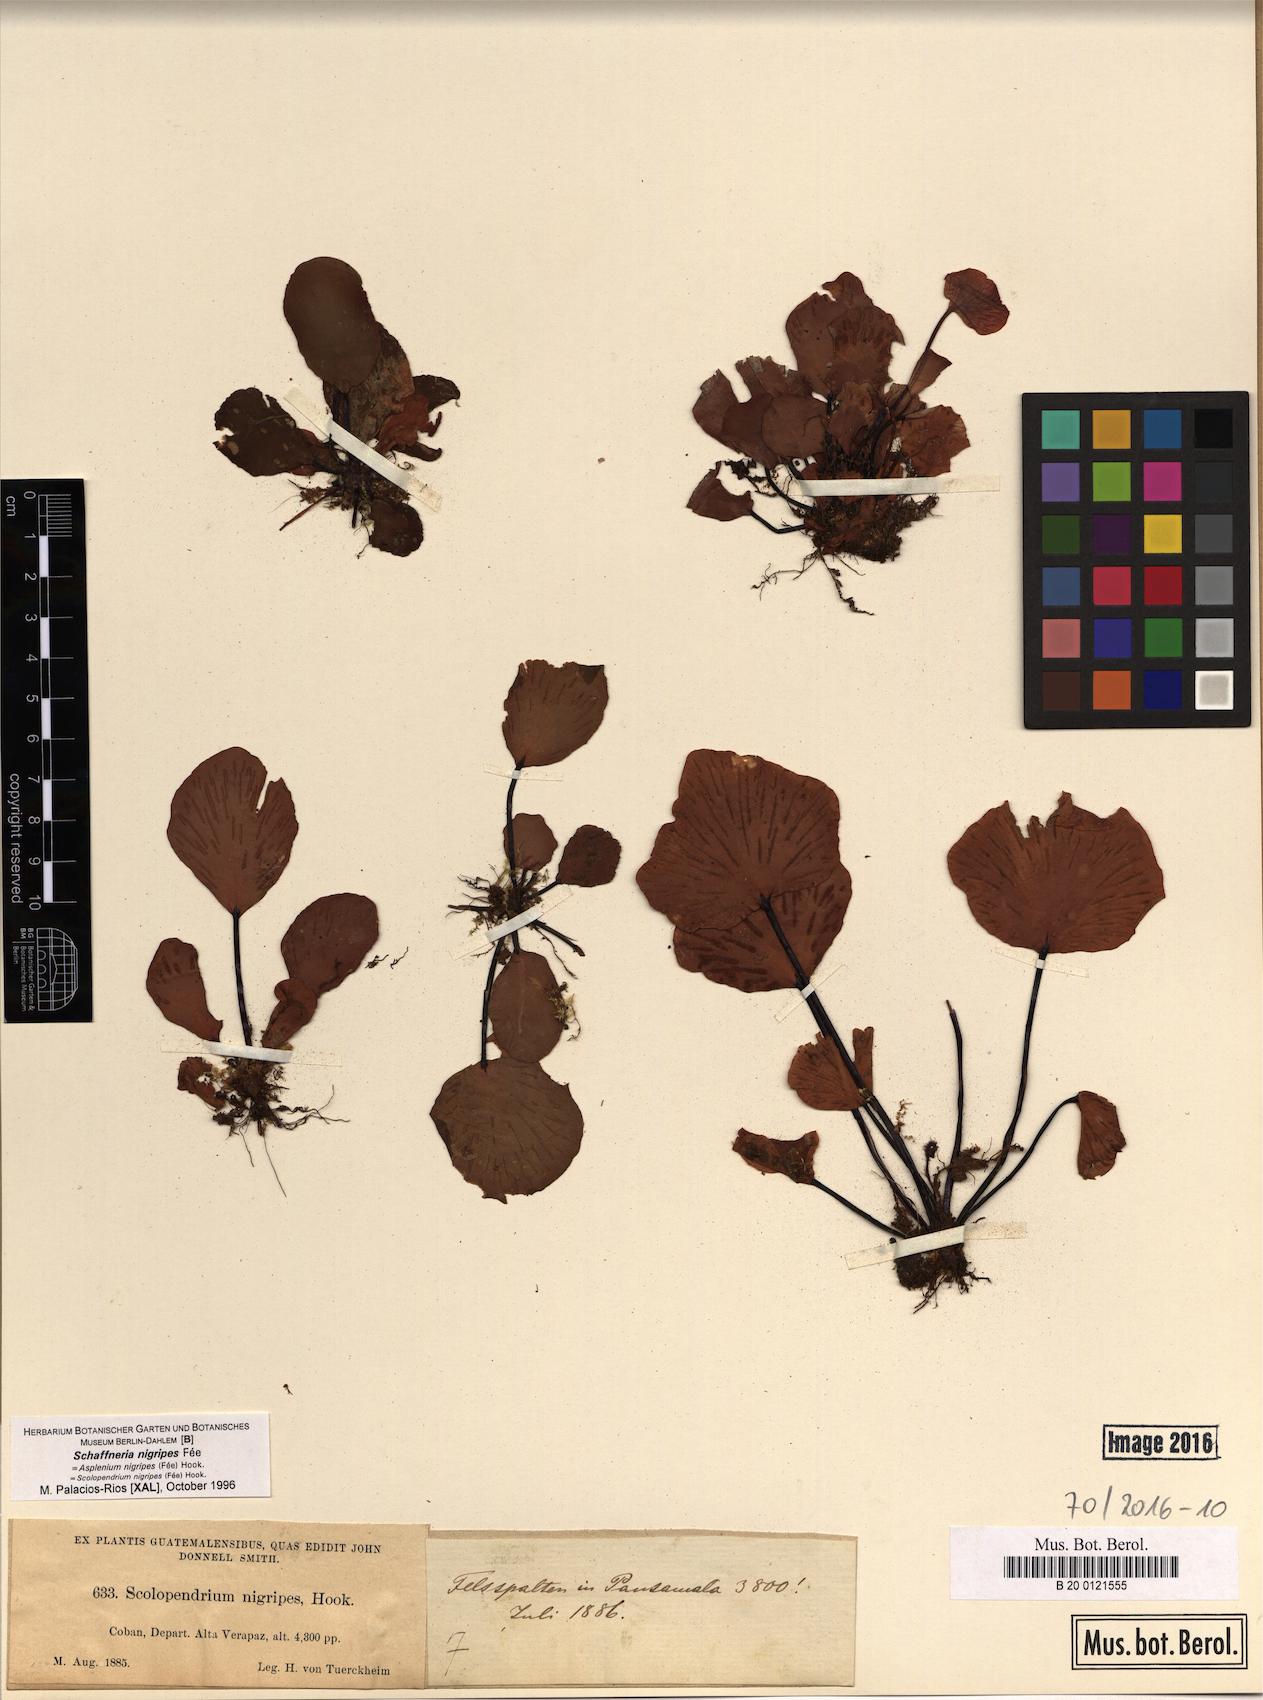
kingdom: Plantae
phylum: Tracheophyta
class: Polypodiopsida
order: Polypodiales
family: Aspleniaceae
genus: Asplenium
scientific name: Asplenium nigripes
